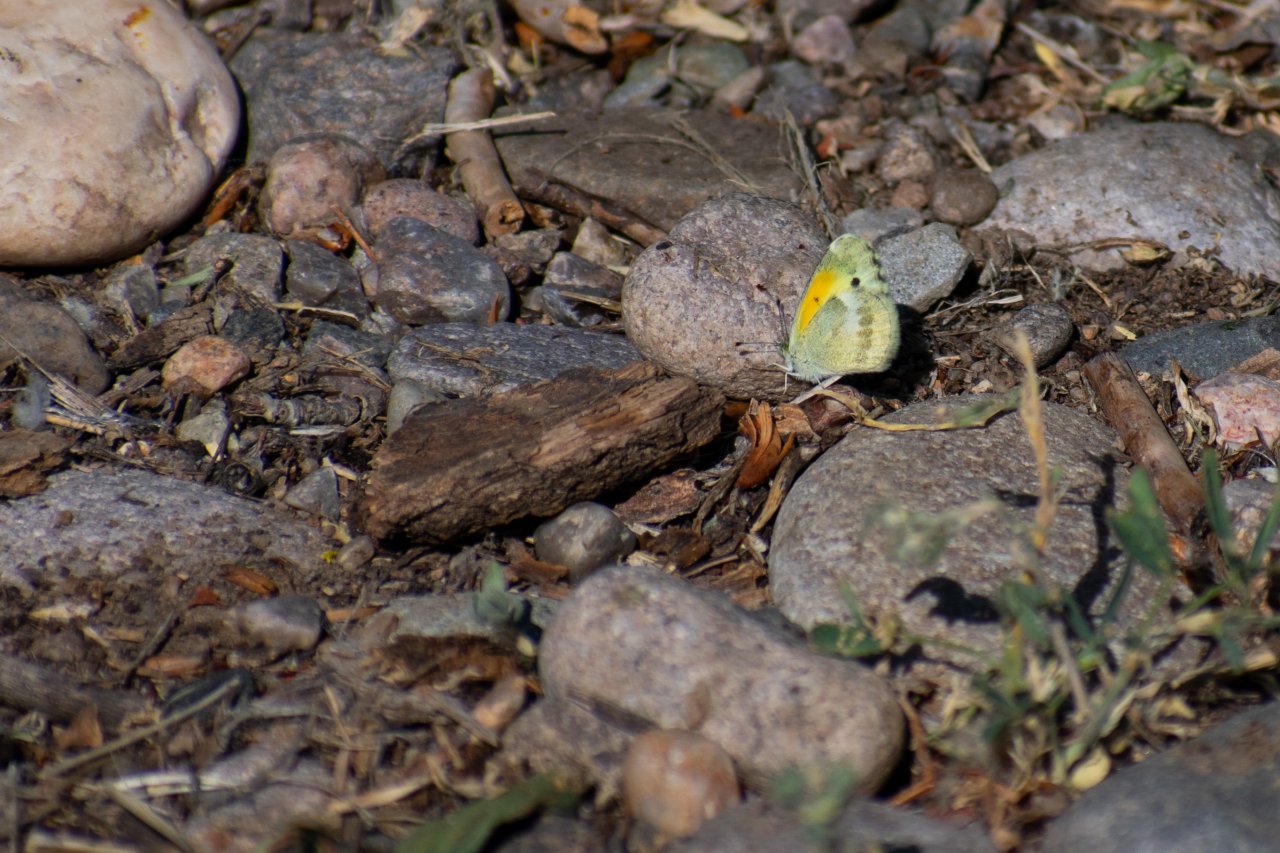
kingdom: Animalia
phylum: Arthropoda
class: Insecta
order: Lepidoptera
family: Pieridae
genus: Nathalis
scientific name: Nathalis iole
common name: Dainty Sulphur
